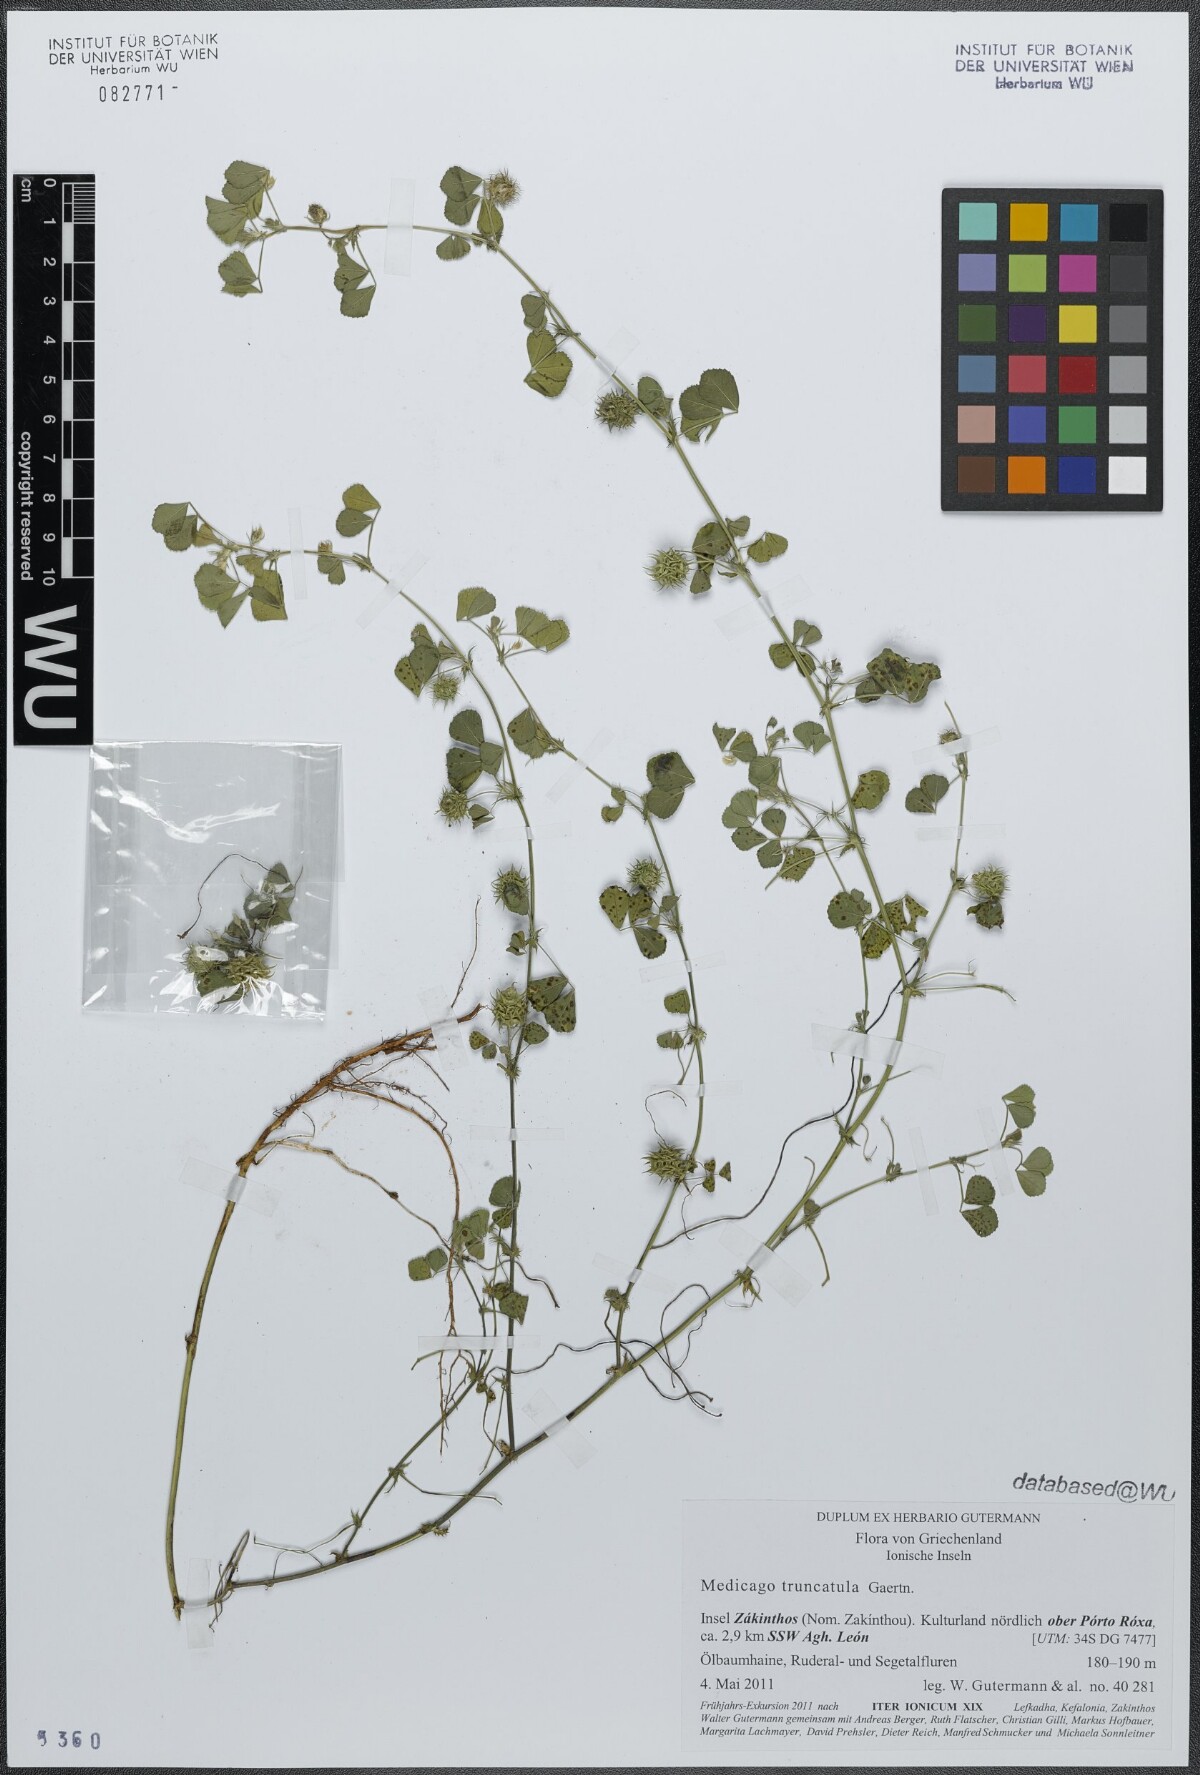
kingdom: Plantae
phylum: Tracheophyta
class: Magnoliopsida
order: Fabales
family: Fabaceae
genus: Medicago
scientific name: Medicago truncatula
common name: Strong-spined medick
